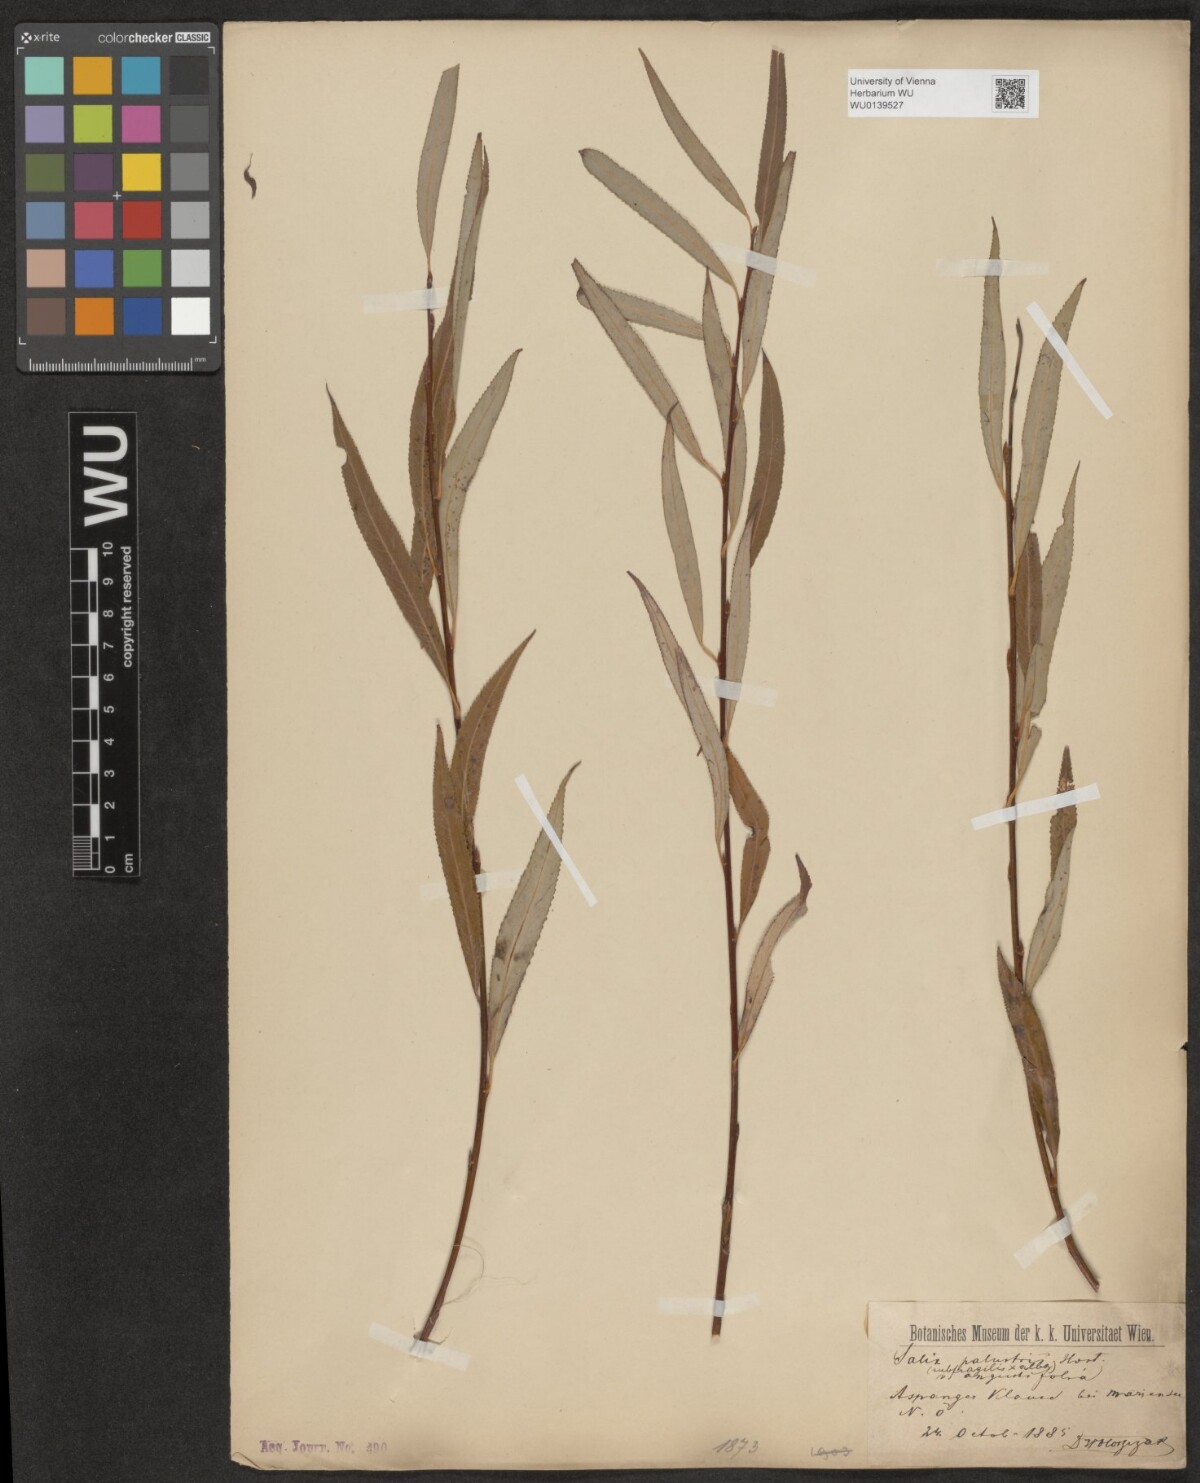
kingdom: Plantae
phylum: Tracheophyta
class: Magnoliopsida
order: Malpighiales
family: Salicaceae
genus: Salix
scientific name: Salix rubens
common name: Hybrid crack willow
